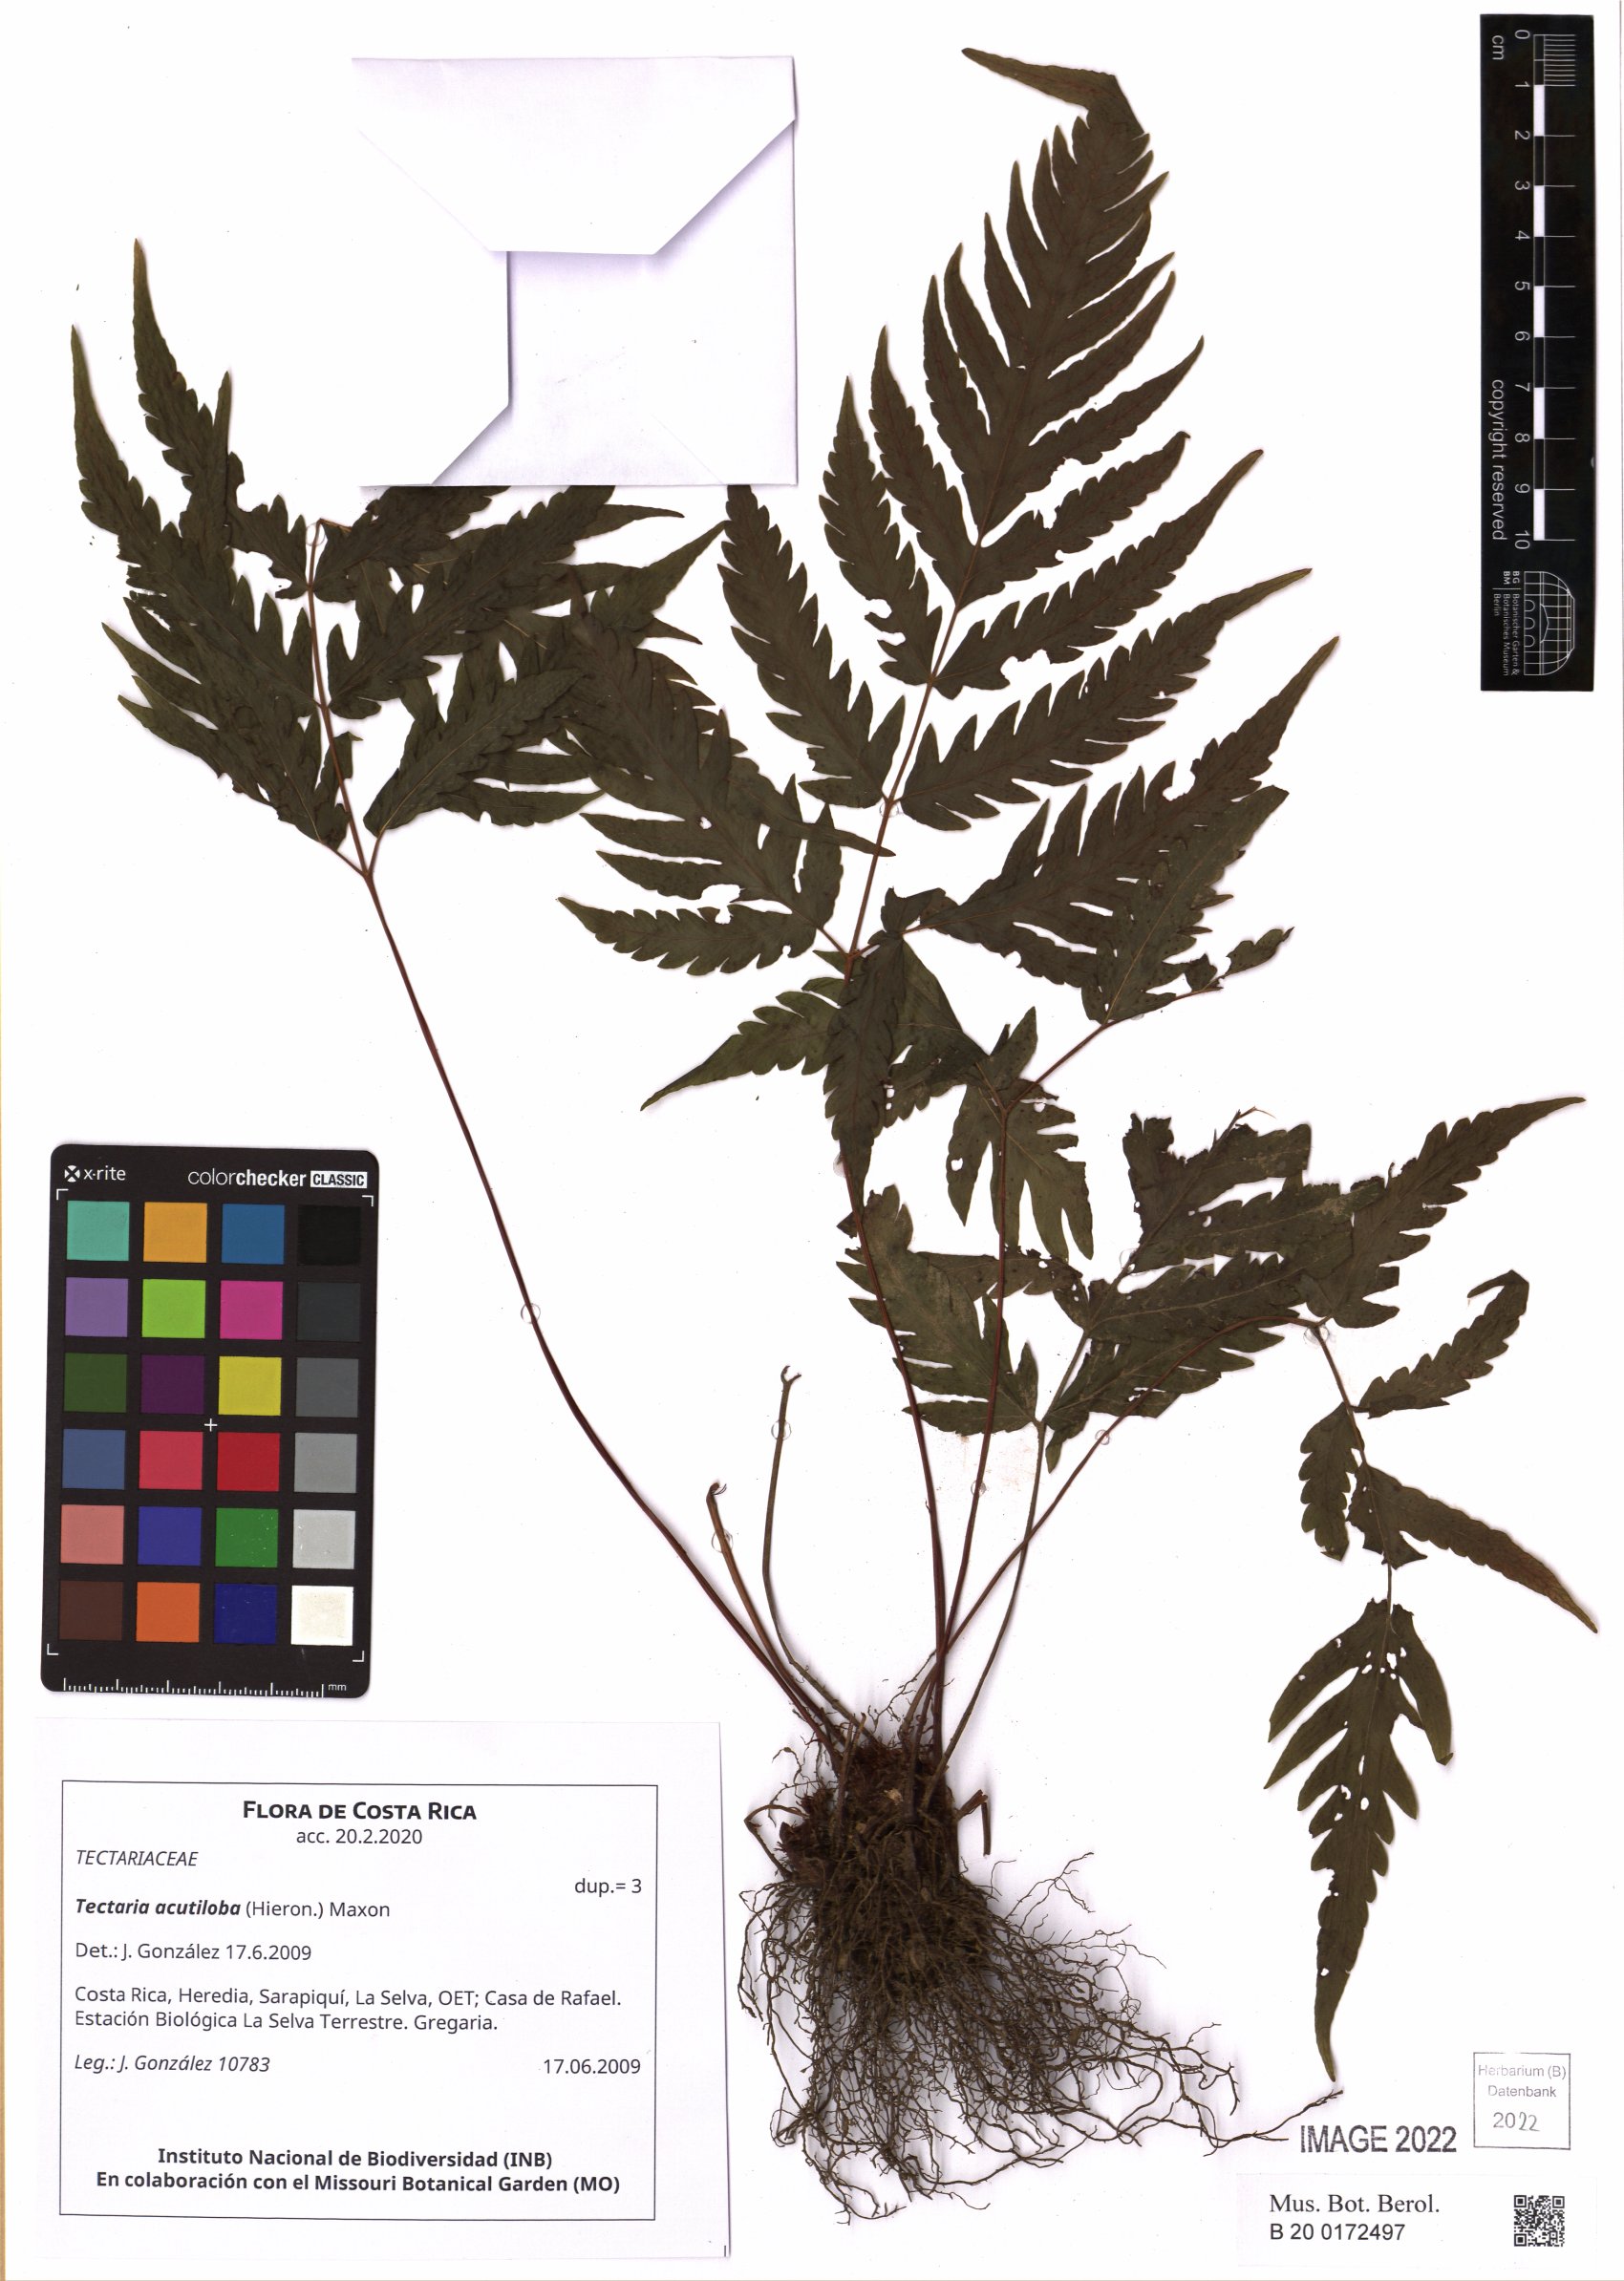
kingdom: Plantae
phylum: Tracheophyta
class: Polypodiopsida
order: Polypodiales
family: Tectariaceae
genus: Tectaria
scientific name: Tectaria mexicana
